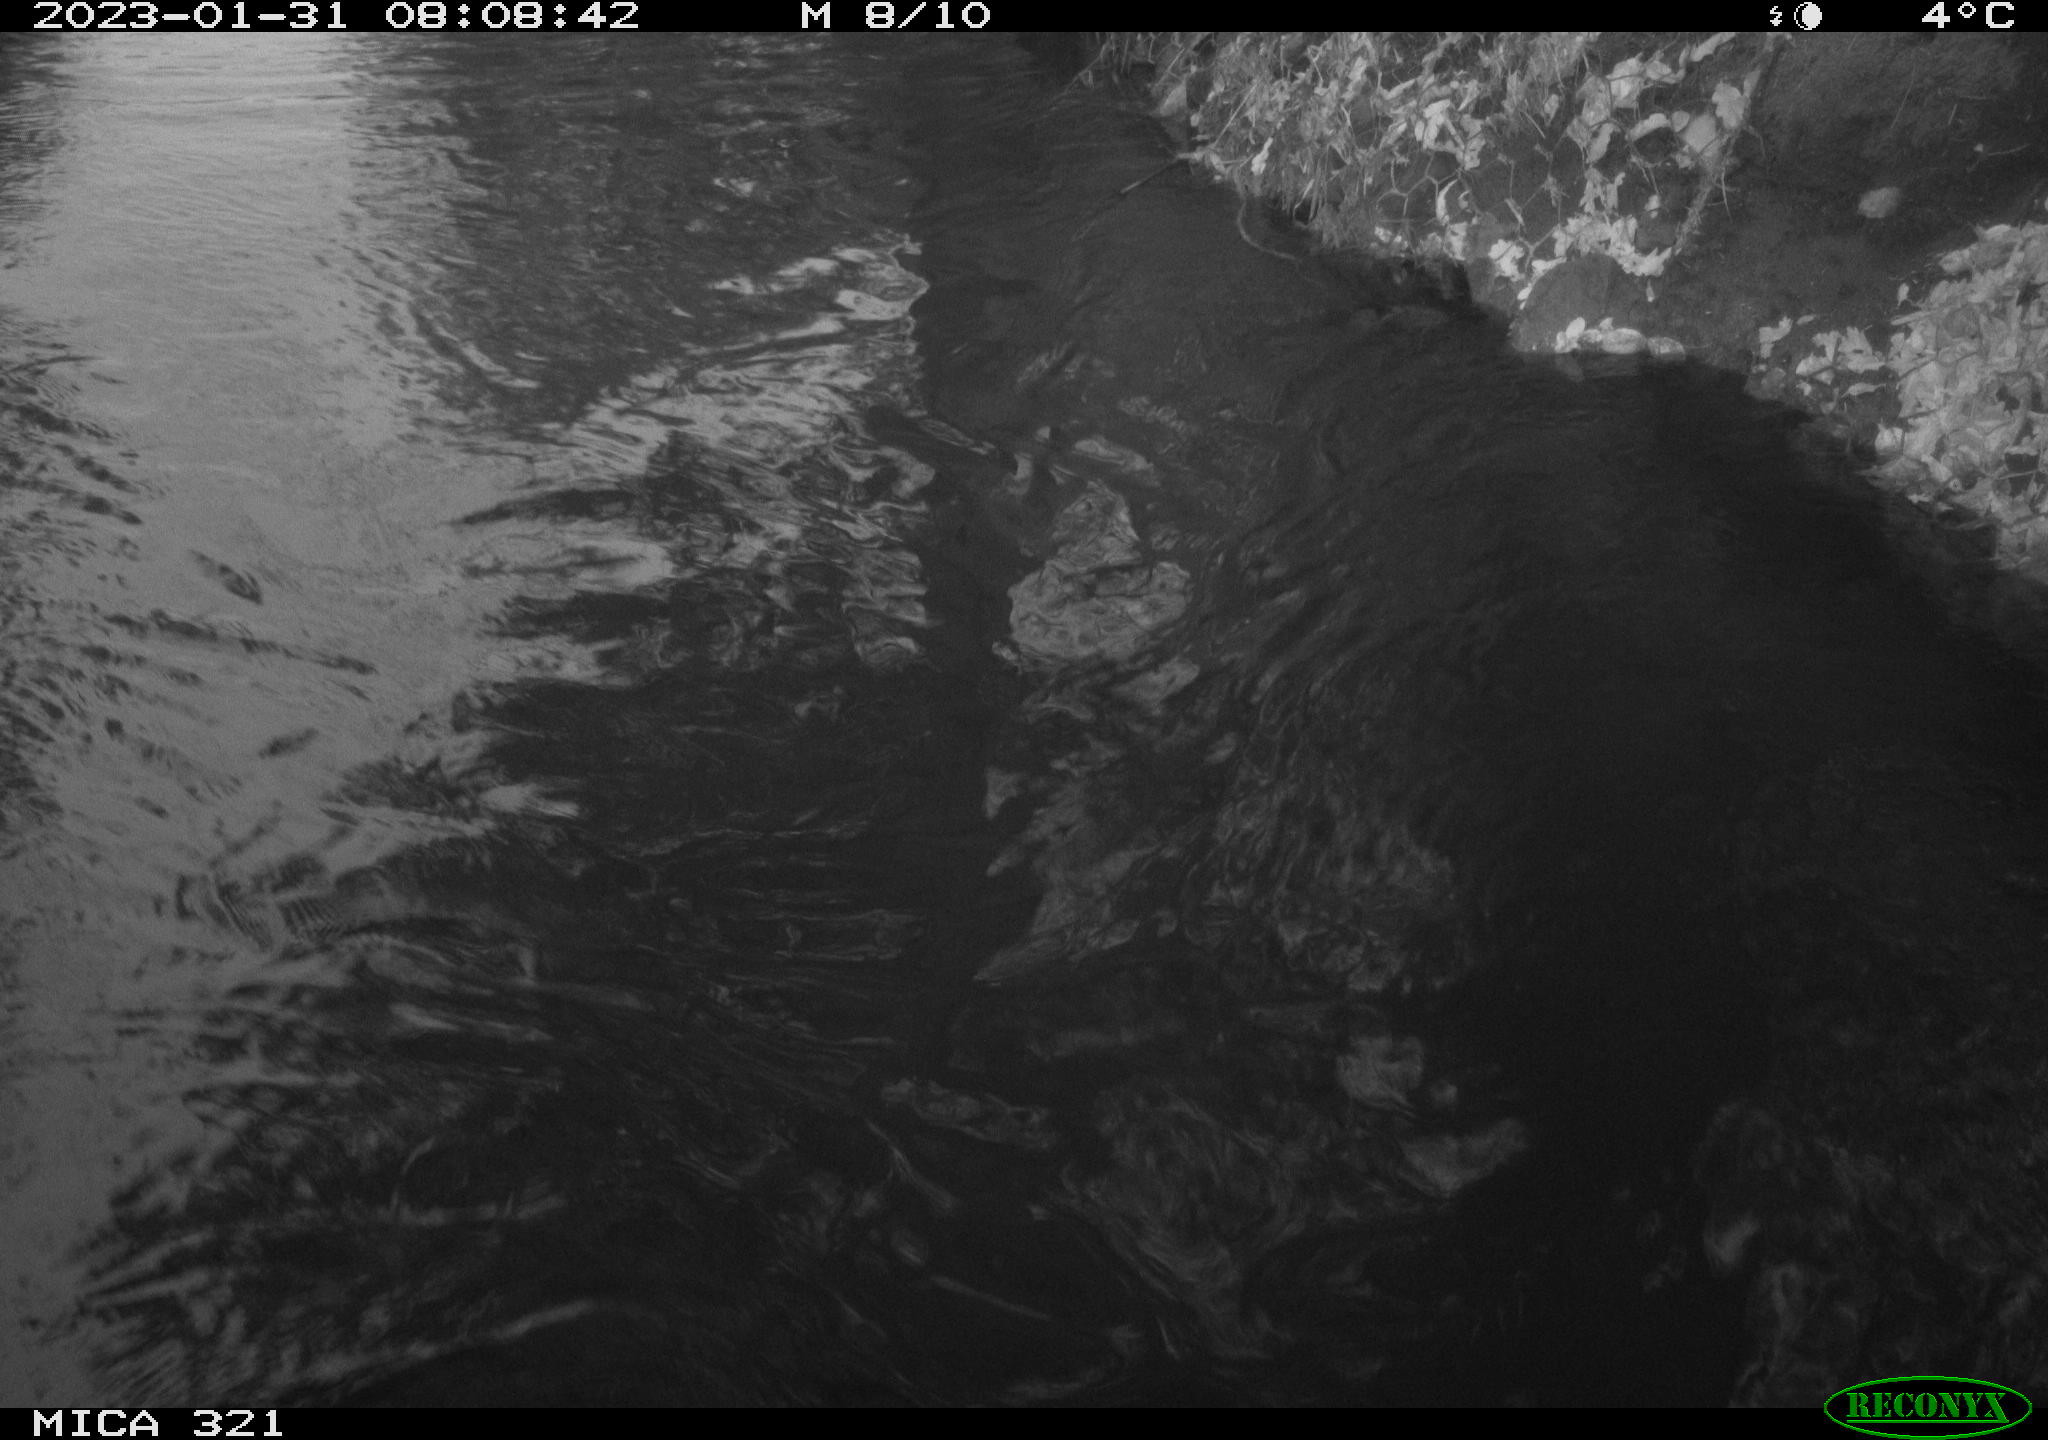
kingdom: Animalia
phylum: Chordata
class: Mammalia
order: Rodentia
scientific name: Rodentia
